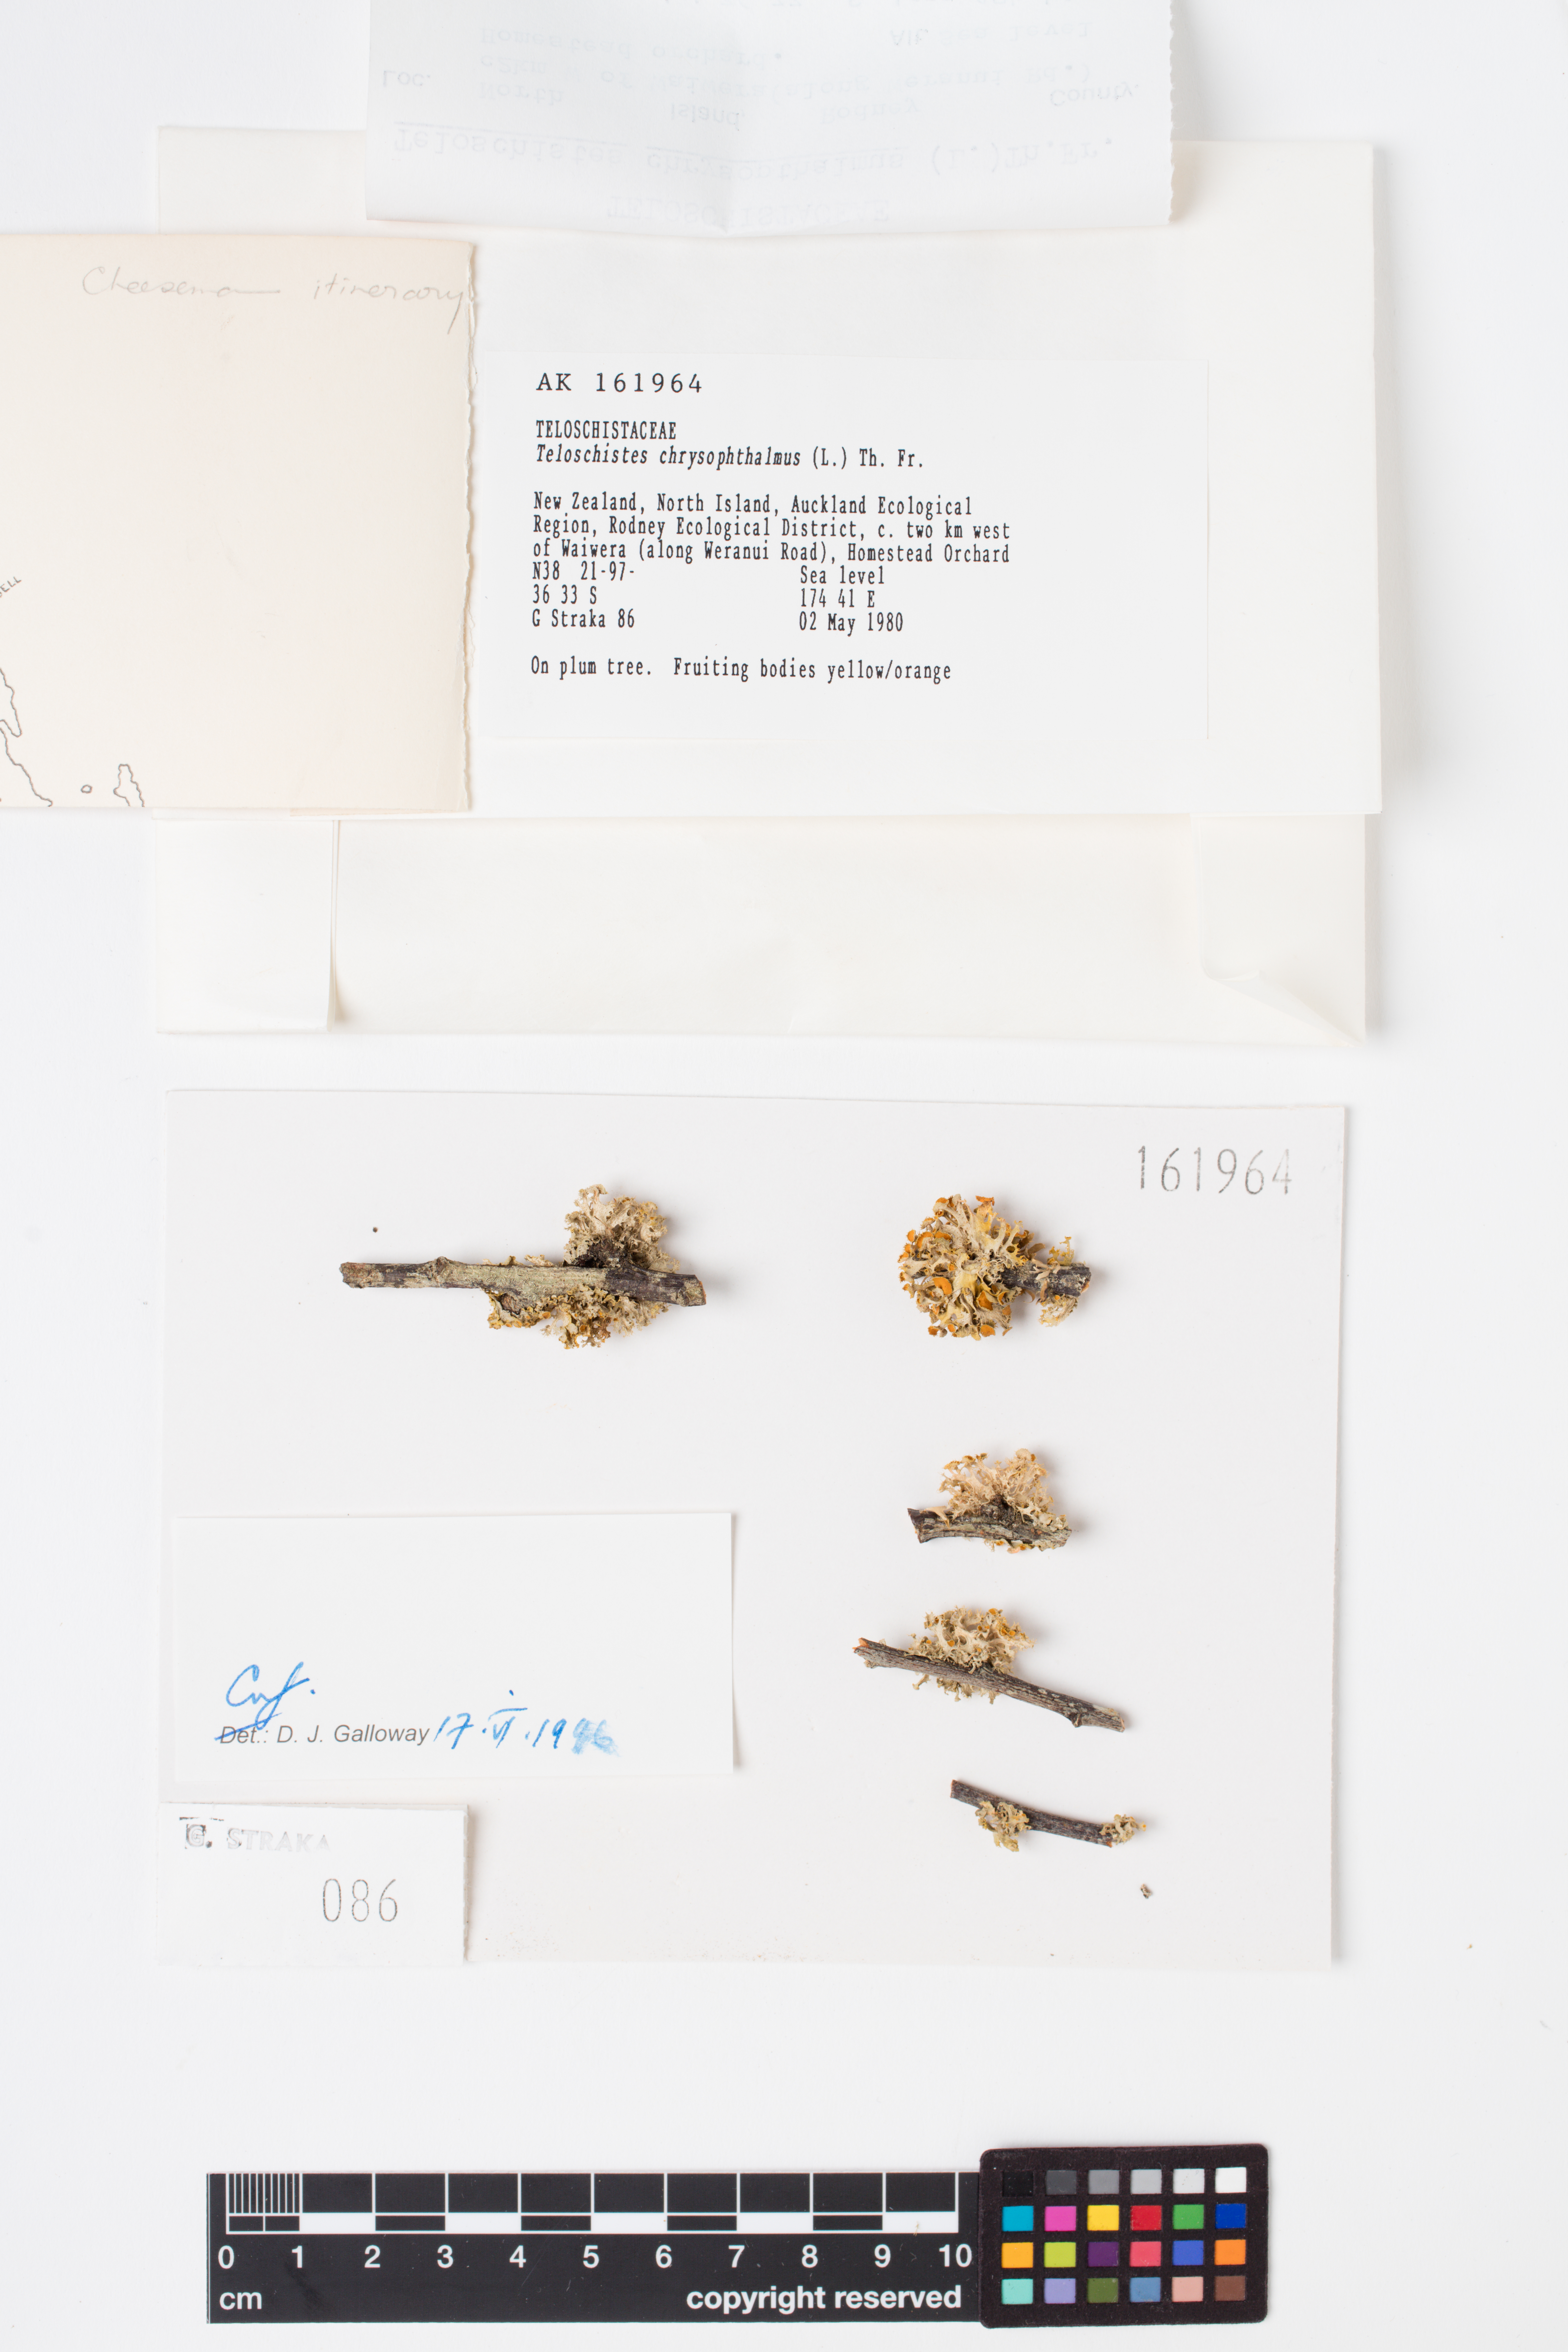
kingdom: Fungi
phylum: Ascomycota
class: Lecanoromycetes
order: Teloschistales
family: Teloschistaceae
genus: Niorma
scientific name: Niorma chrysophthalma
